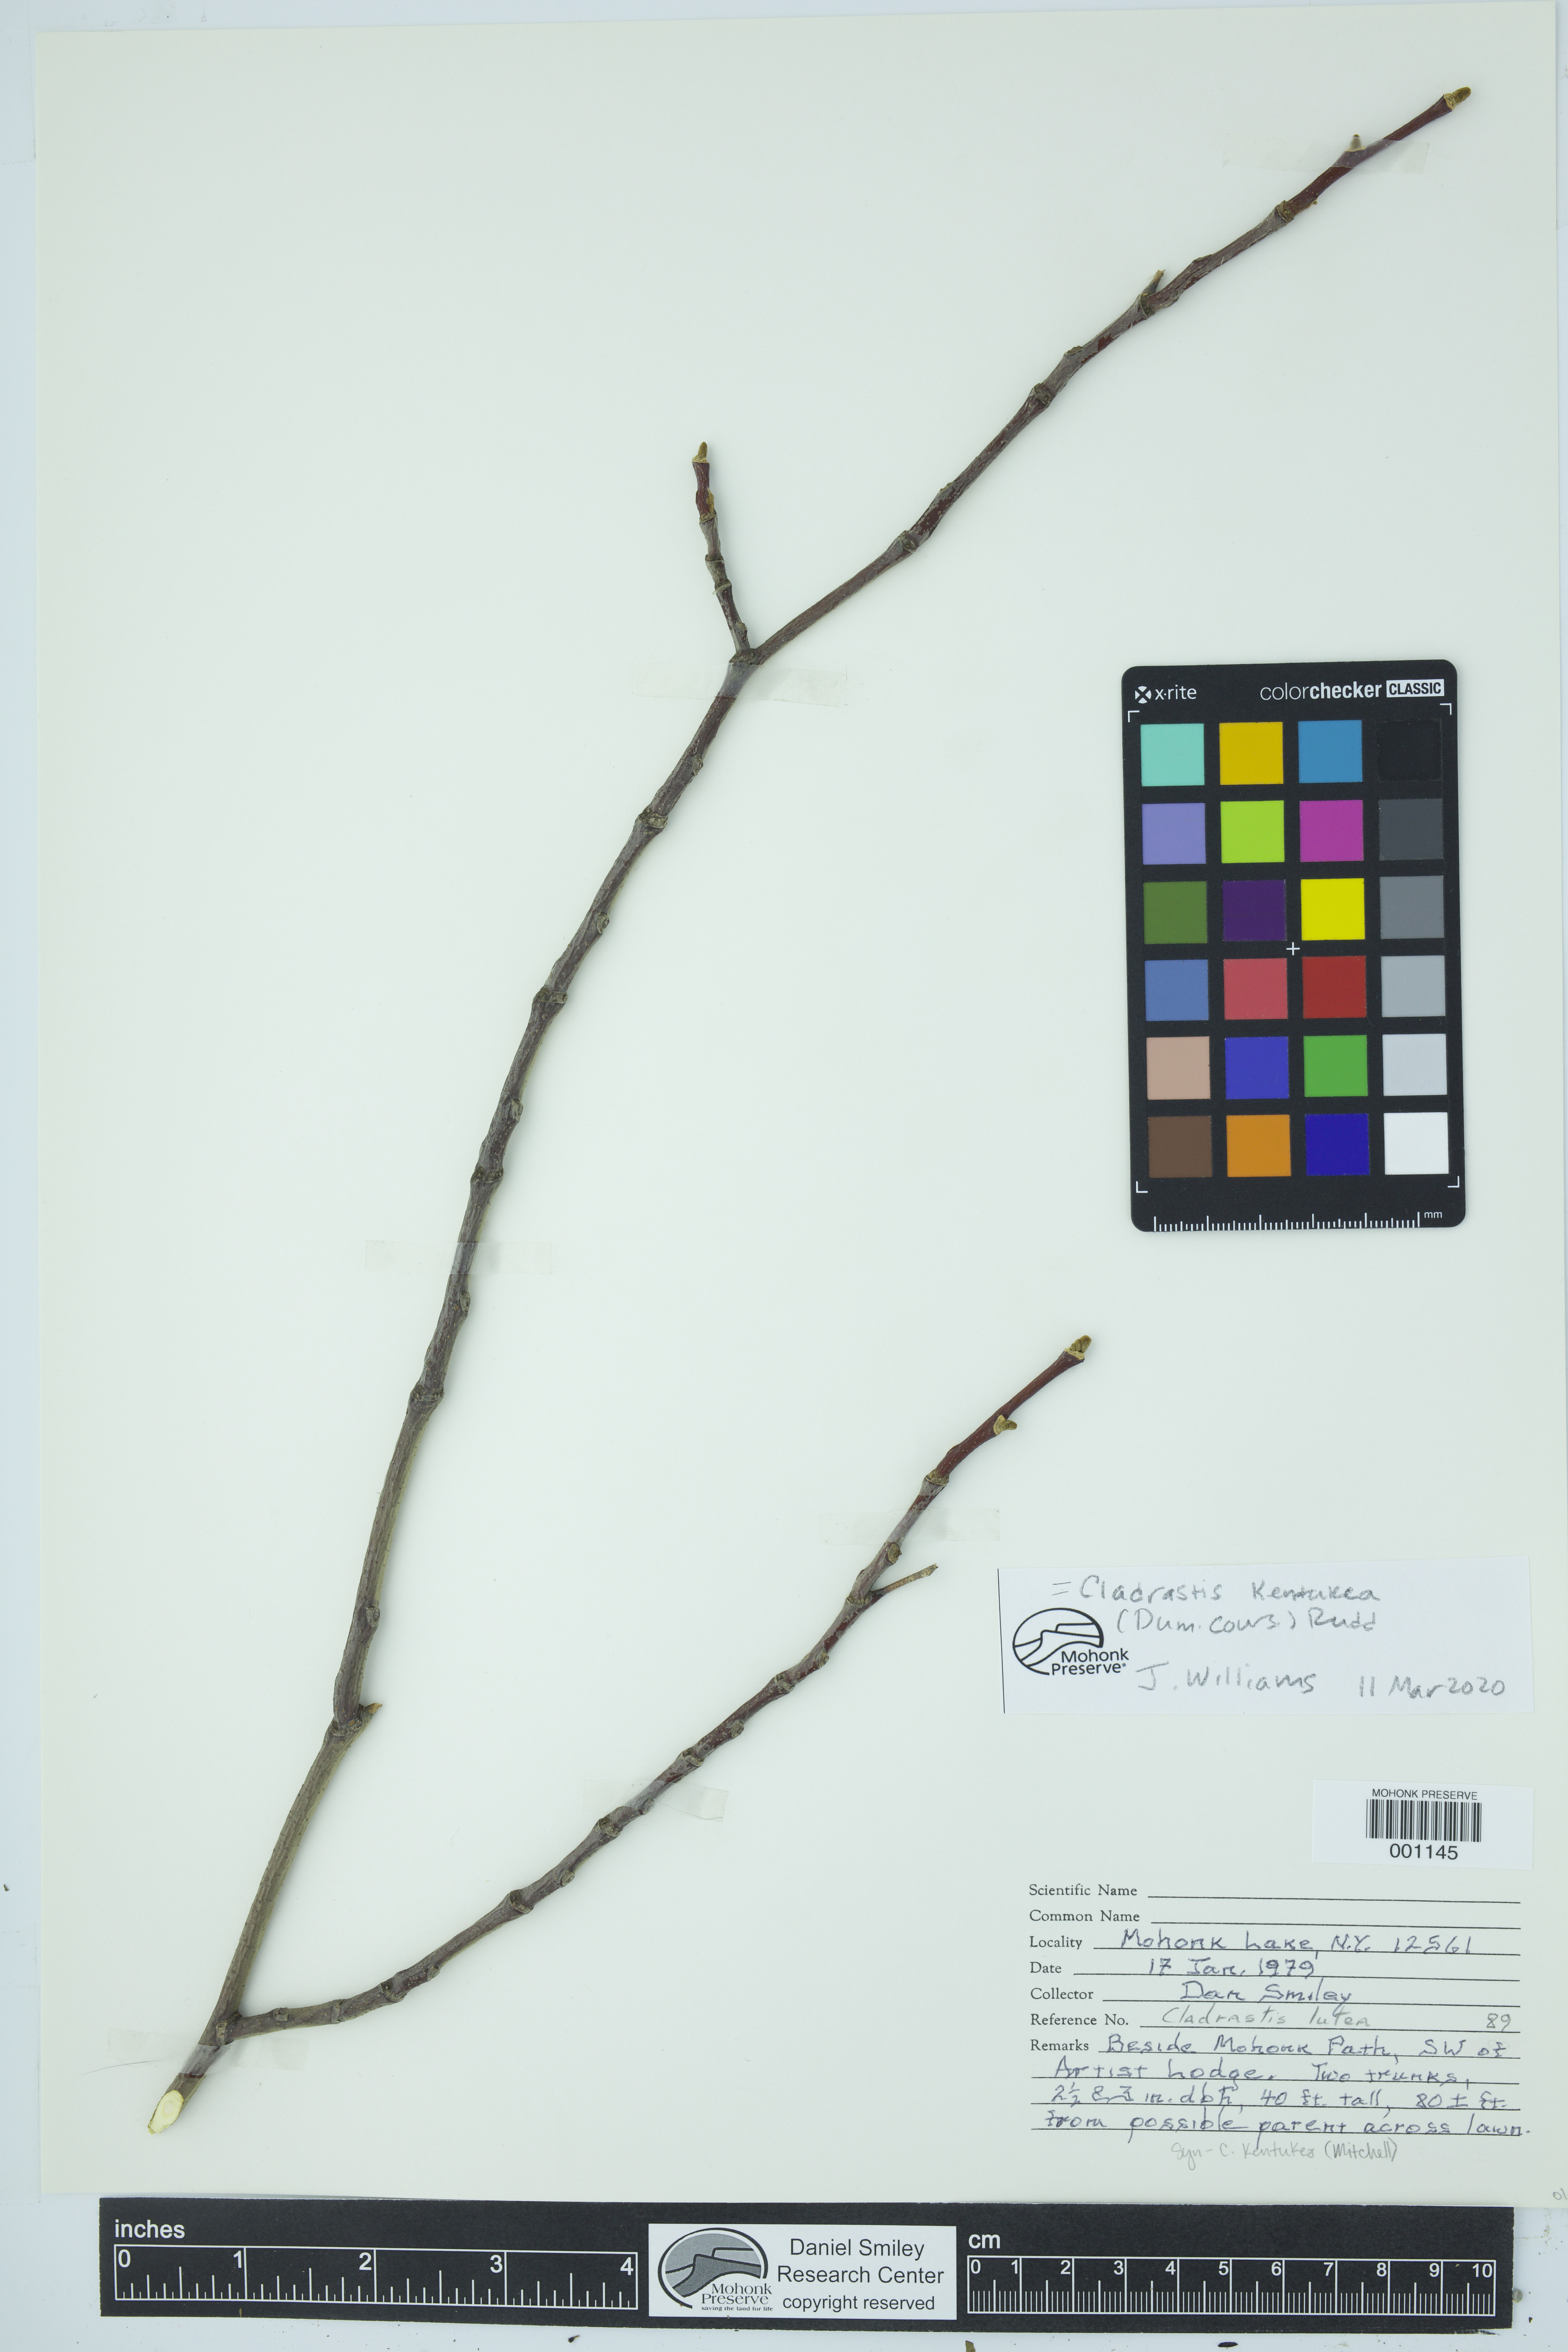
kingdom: Plantae
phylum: Tracheophyta
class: Magnoliopsida
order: Fabales
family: Fabaceae
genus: Cladrastis
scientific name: Cladrastis kentukea
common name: Kentucky yellow-wood
